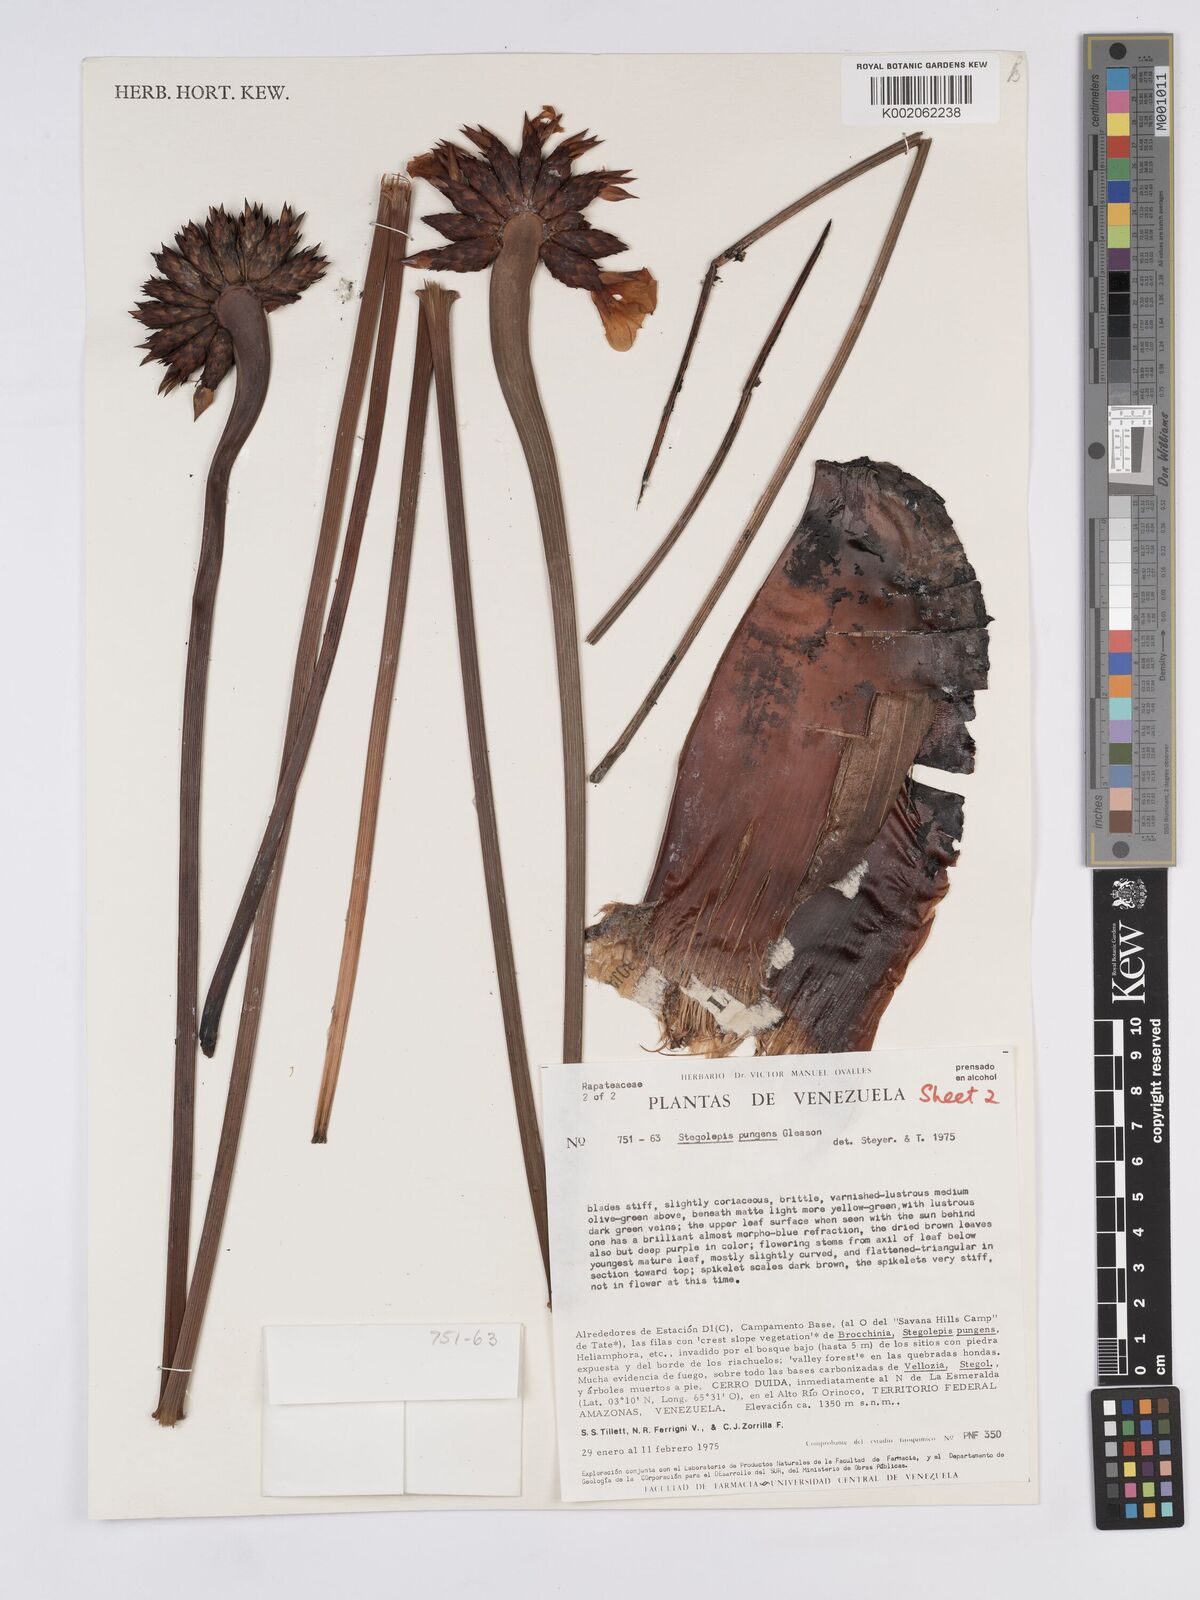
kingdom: Plantae
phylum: Tracheophyta
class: Liliopsida
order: Poales
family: Rapateaceae
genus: Stegolepis
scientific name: Stegolepis pungens
